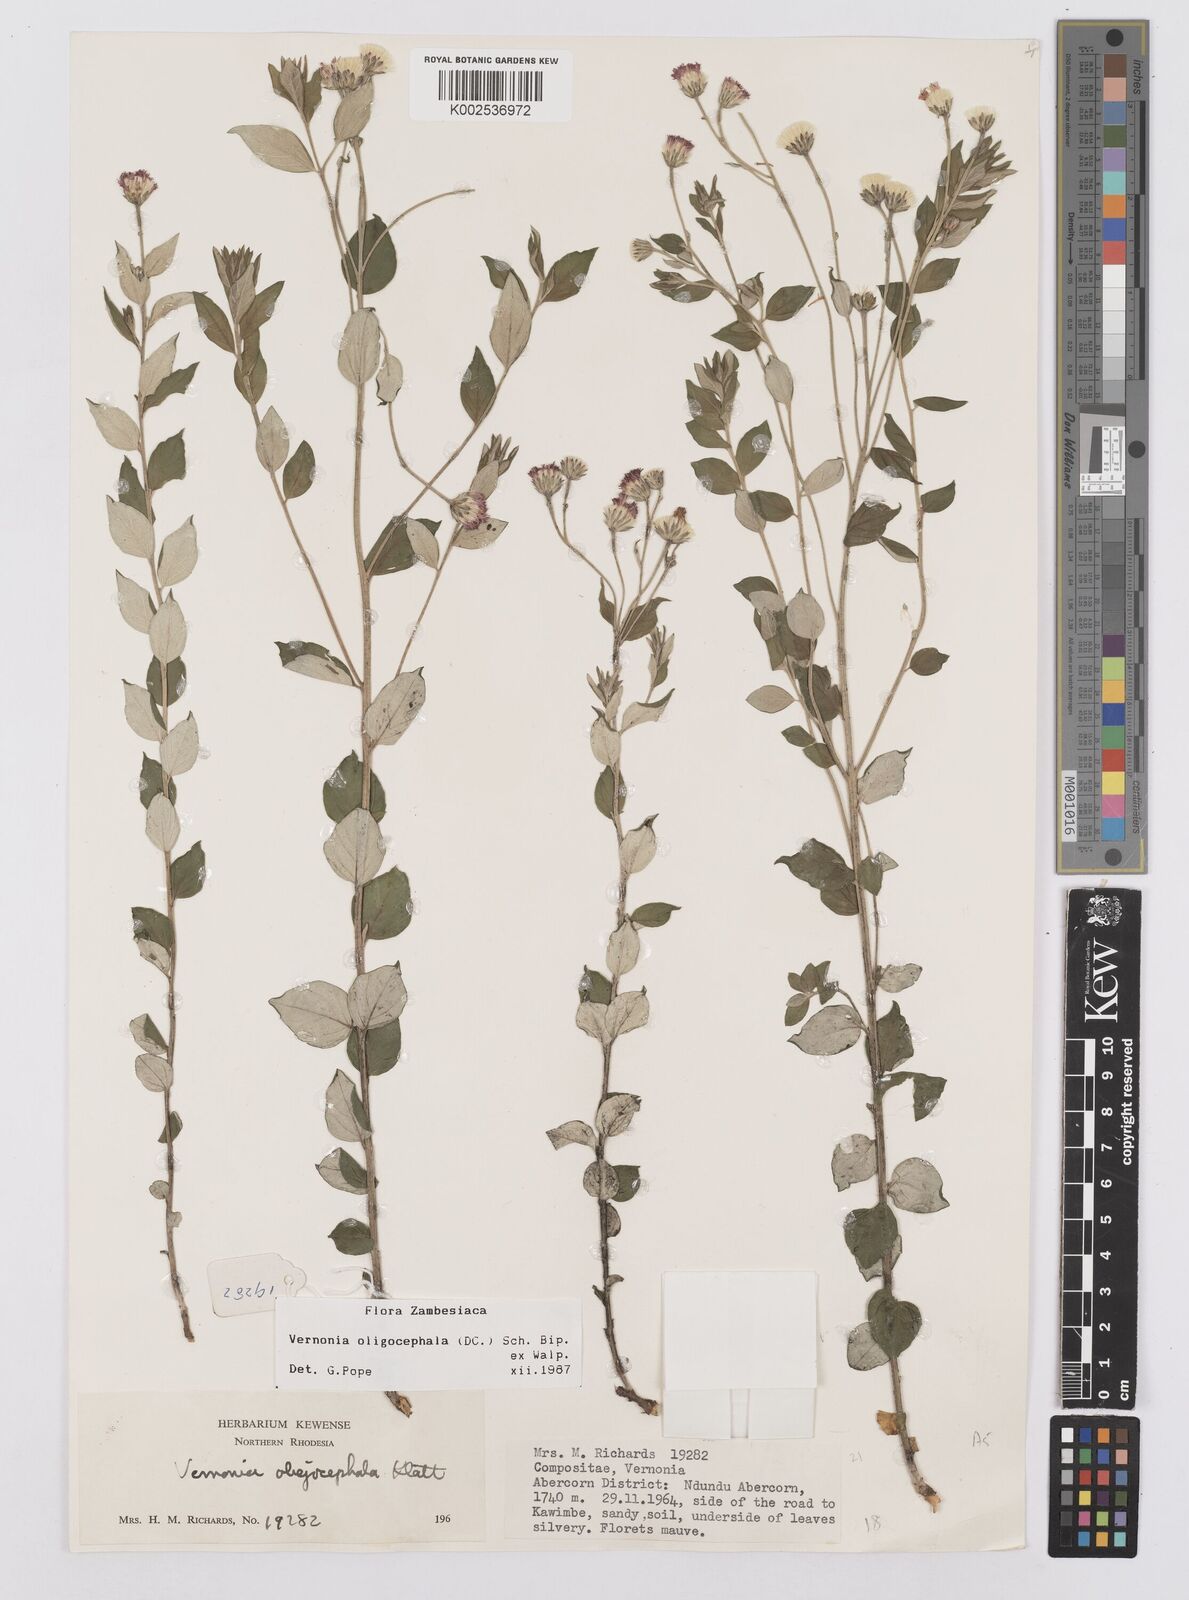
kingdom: Plantae
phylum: Tracheophyta
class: Magnoliopsida
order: Asterales
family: Asteraceae
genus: Hilliardiella
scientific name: Hilliardiella oligocephala
